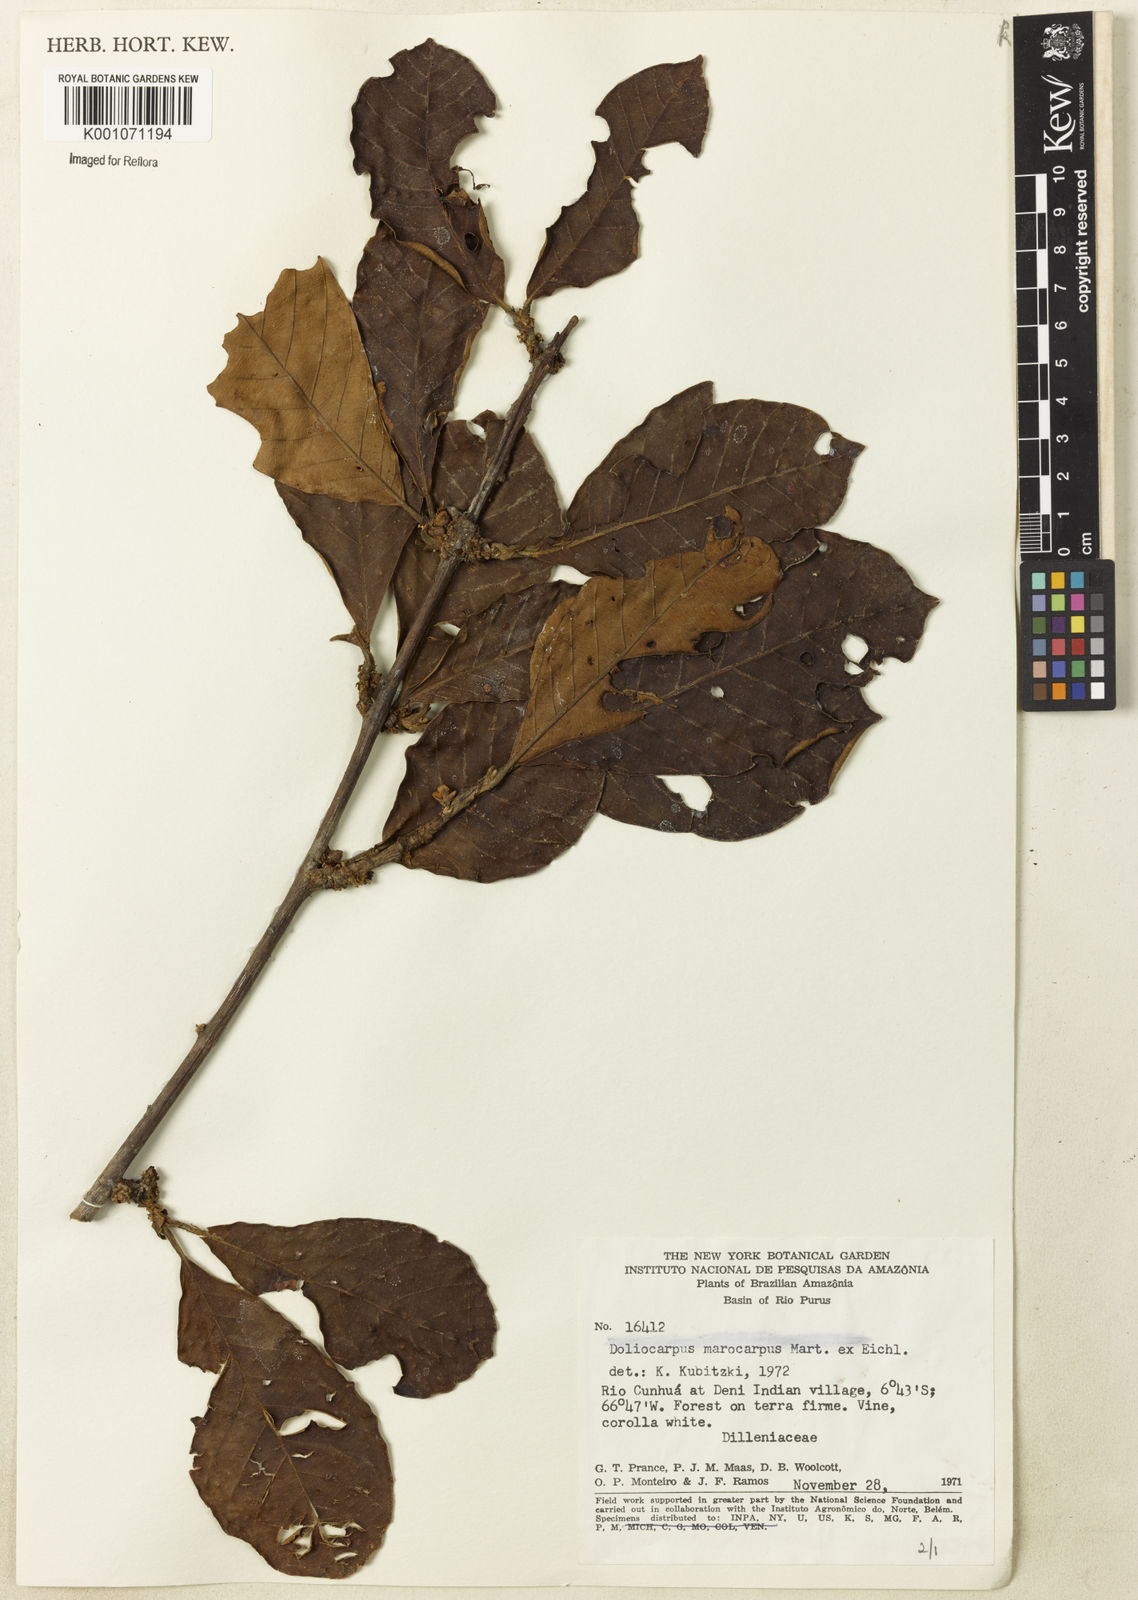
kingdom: Plantae
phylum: Tracheophyta
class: Magnoliopsida
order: Dilleniales
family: Dilleniaceae
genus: Doliocarpus
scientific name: Doliocarpus macrocarpus
